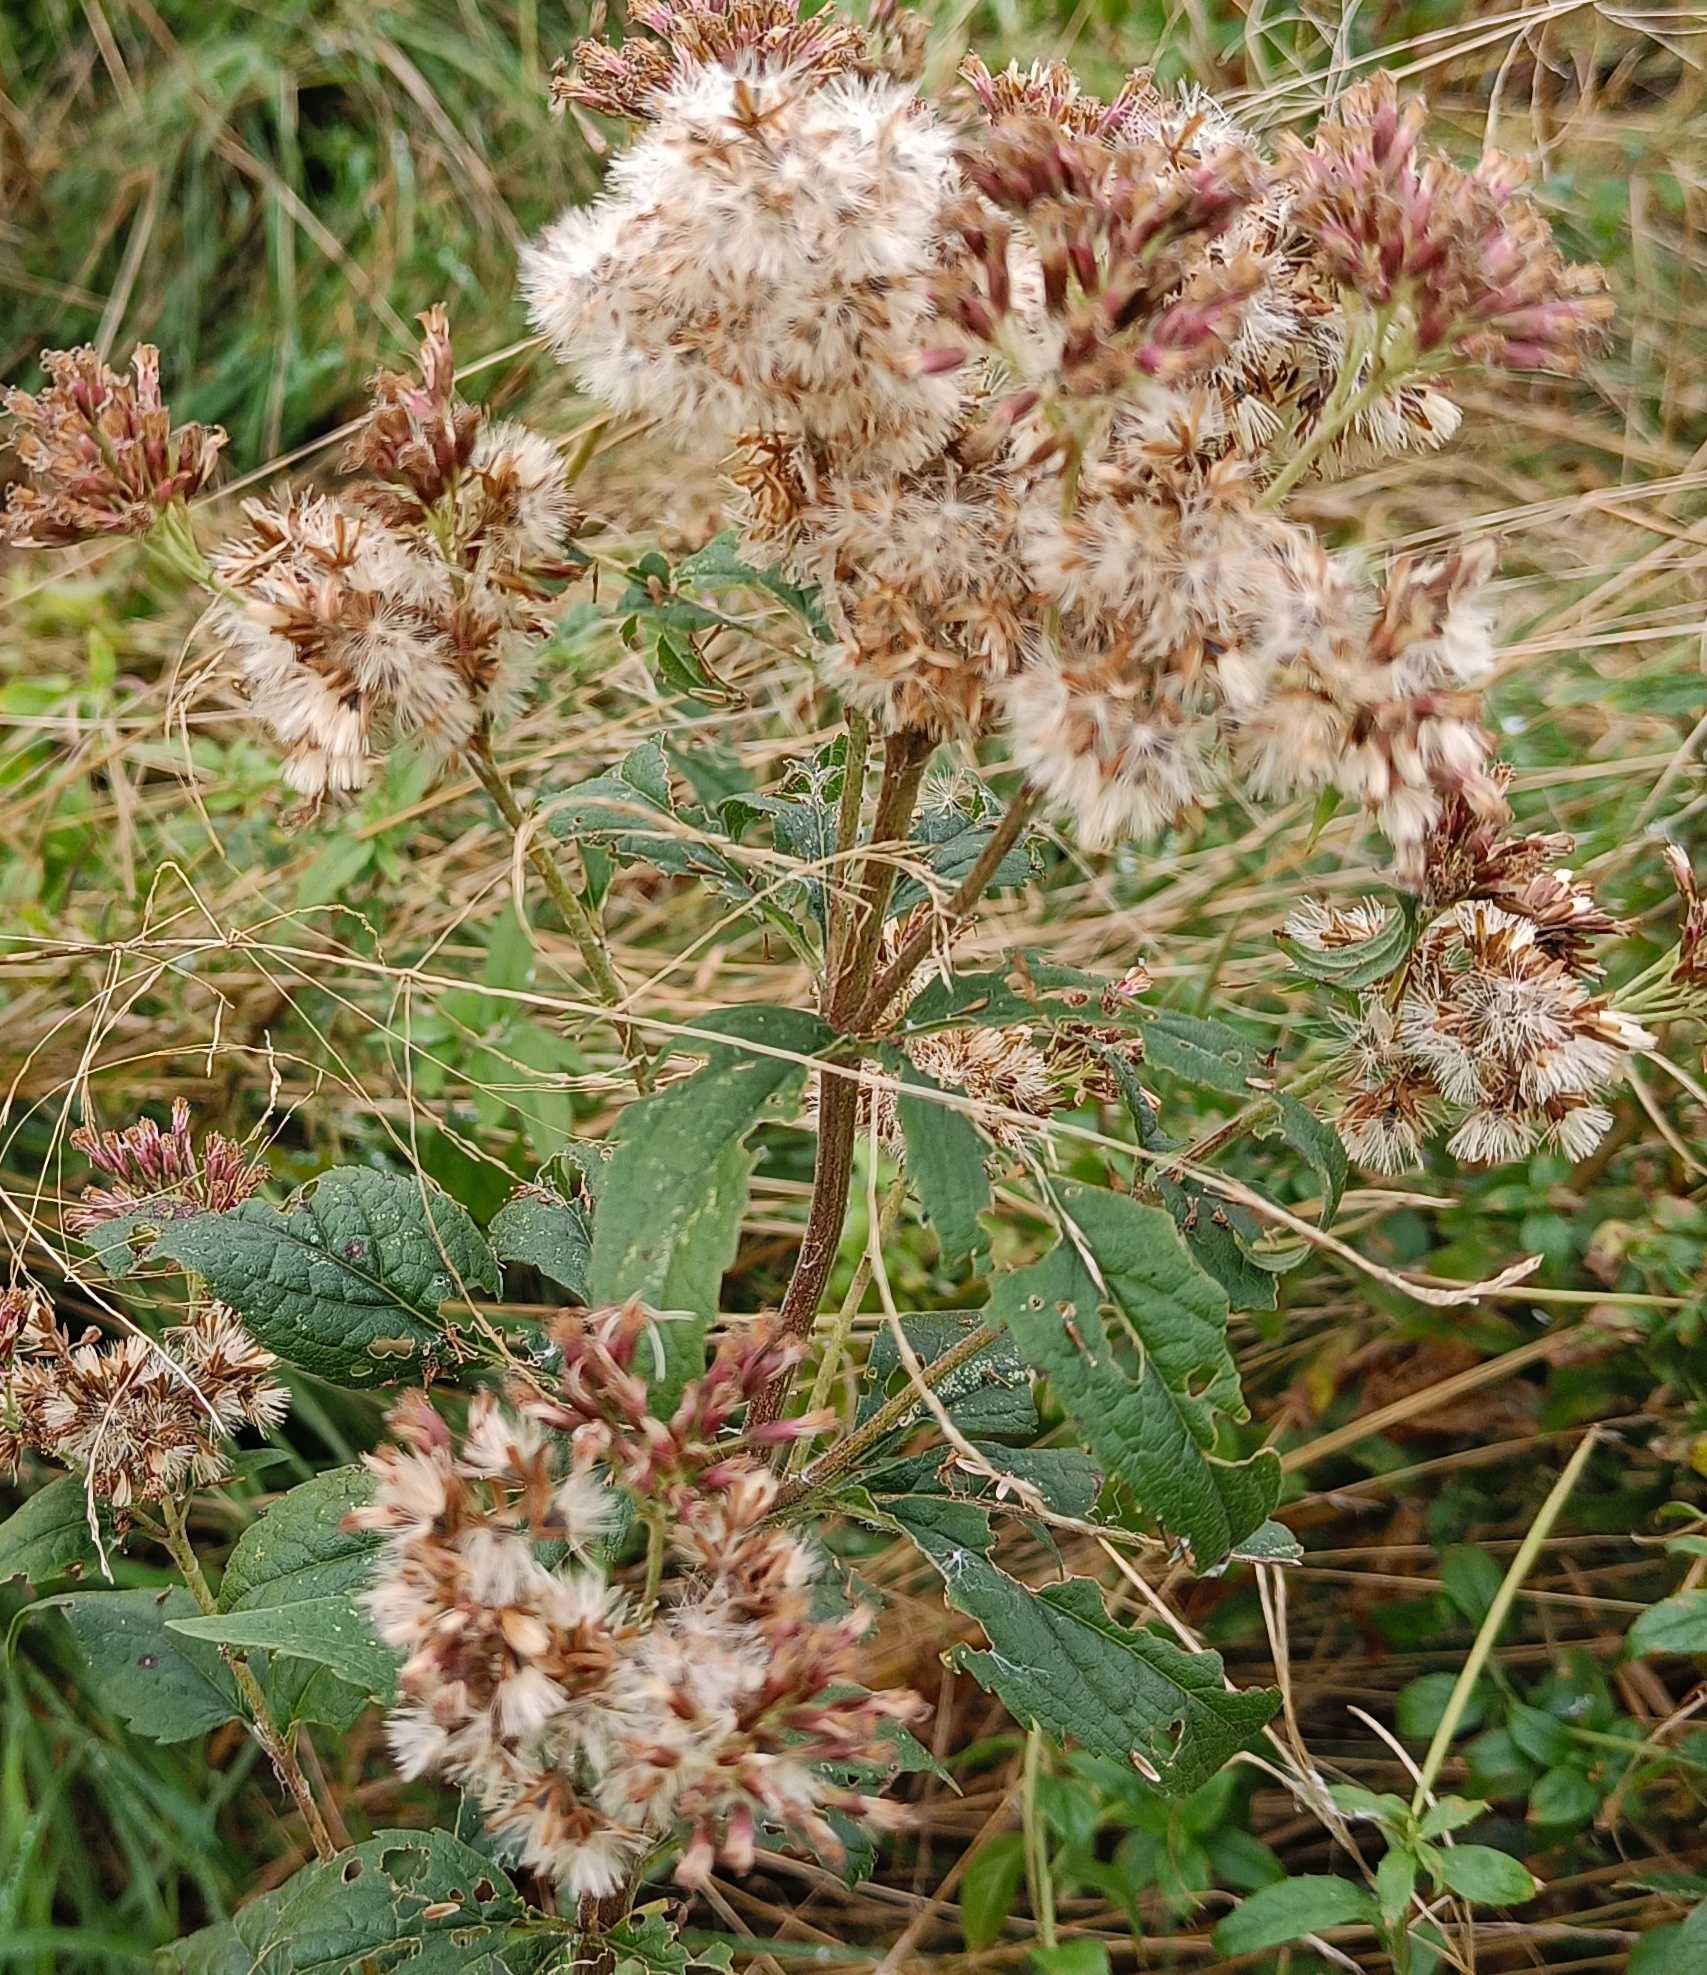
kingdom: Plantae
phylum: Tracheophyta
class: Magnoliopsida
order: Asterales
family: Asteraceae
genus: Eupatorium
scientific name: Eupatorium cannabinum
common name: Hjortetrøst
